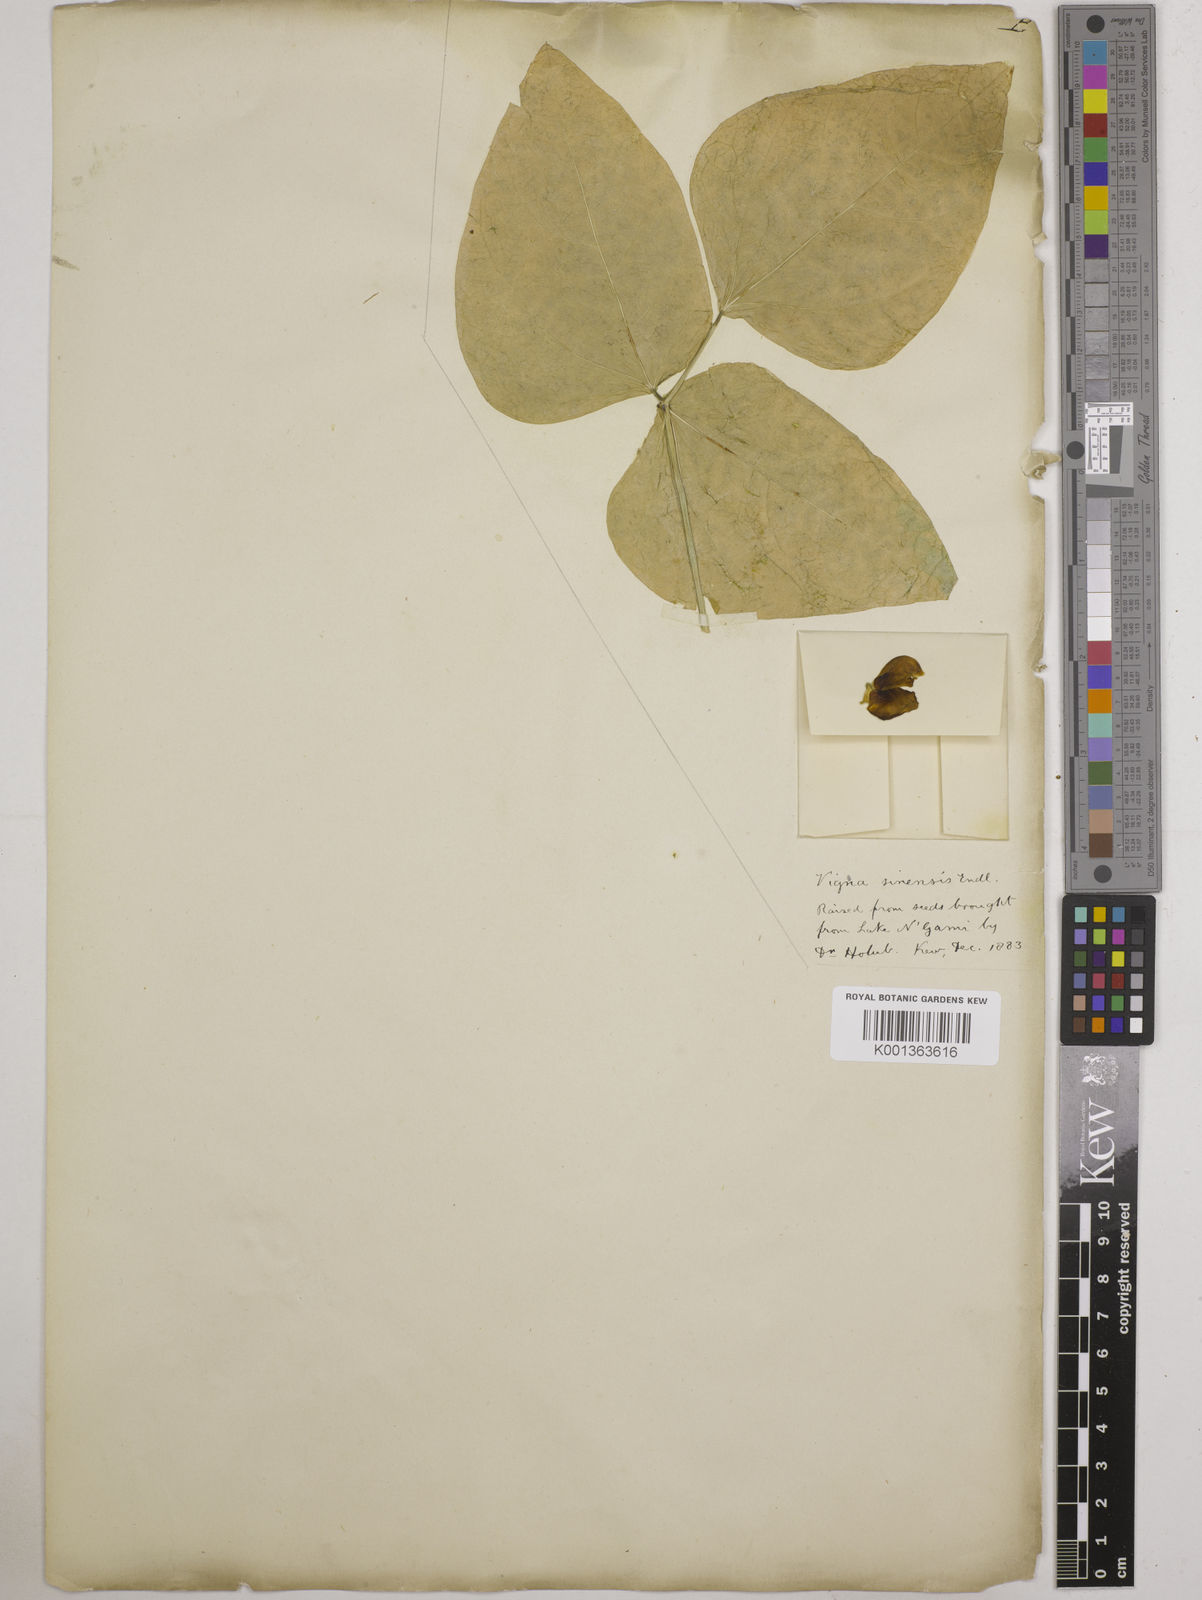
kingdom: Plantae
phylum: Tracheophyta
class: Magnoliopsida
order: Fabales
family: Fabaceae
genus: Vigna
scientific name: Vigna unguiculata
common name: Cowpea
